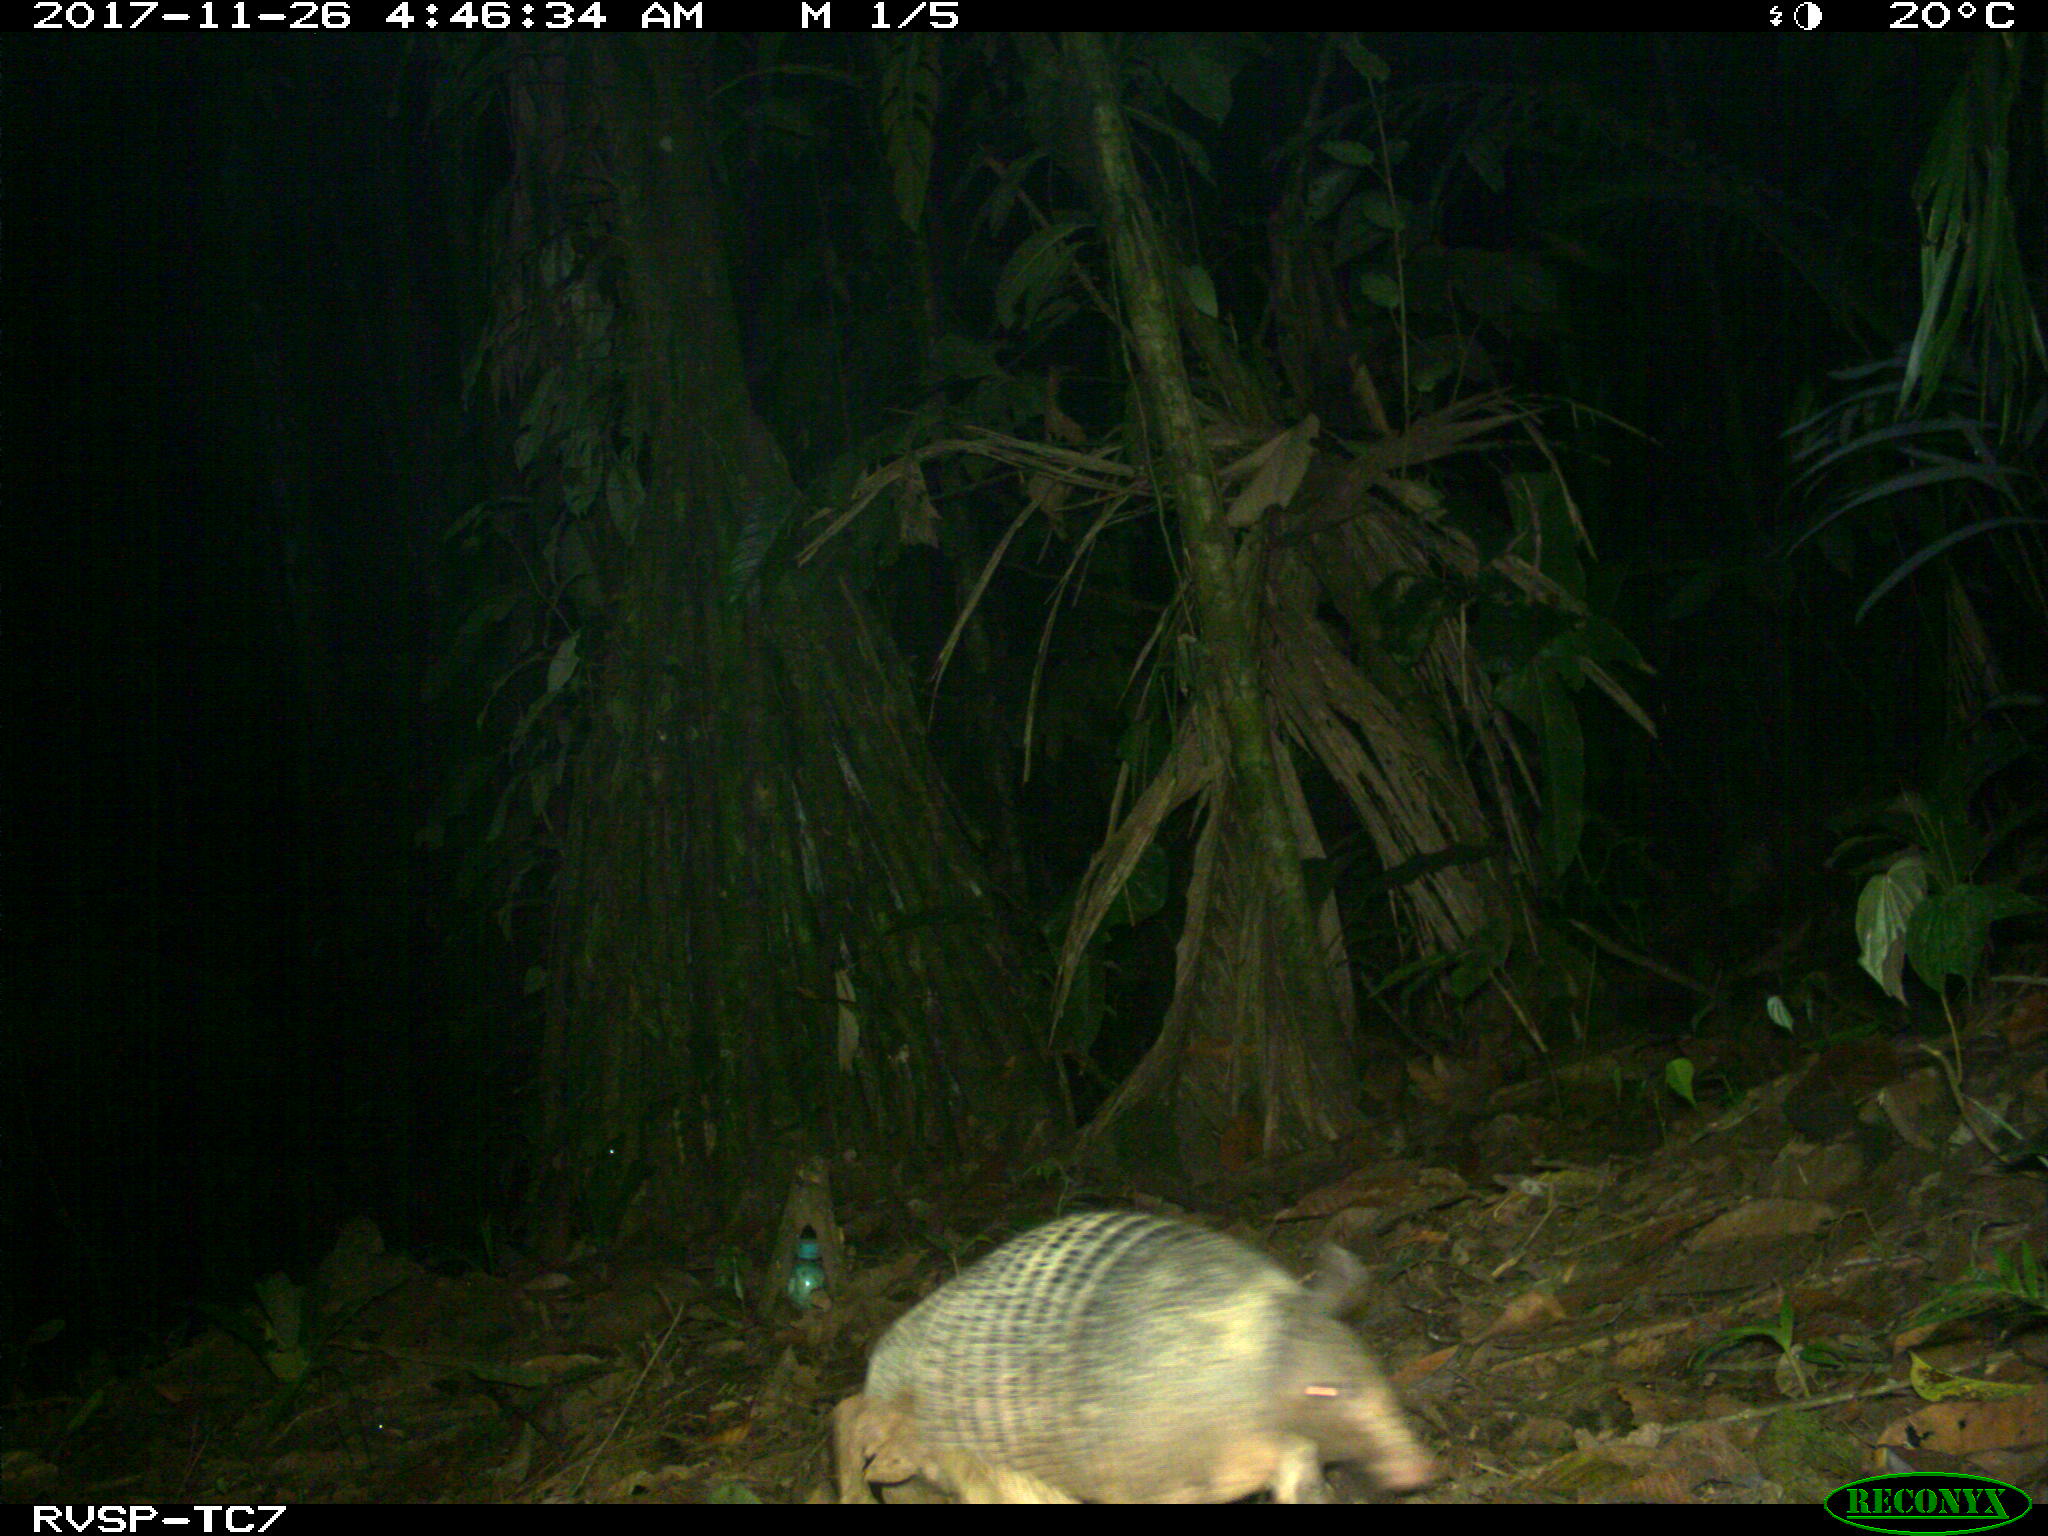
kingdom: Animalia
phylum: Chordata
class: Mammalia
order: Cingulata
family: Dasypodidae
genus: Dasypus
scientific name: Dasypus novemcinctus
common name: Nine-banded armadillo
